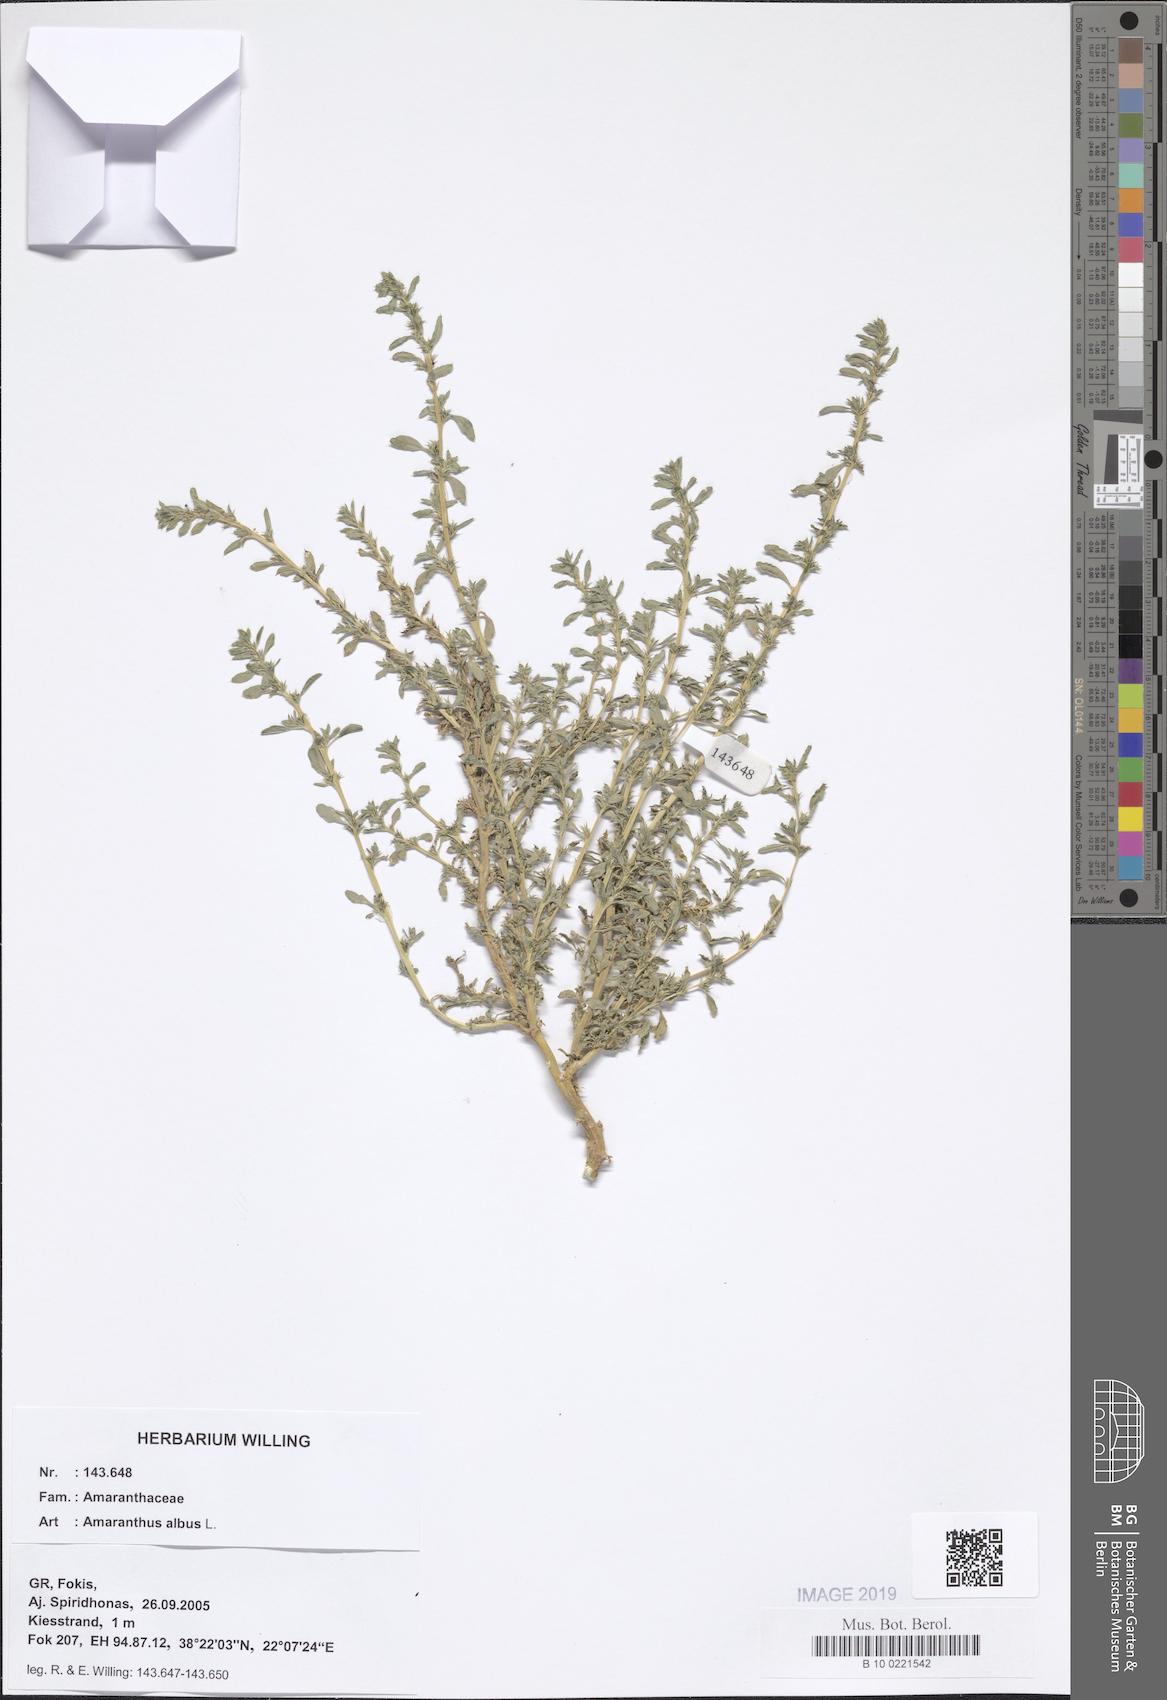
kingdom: Plantae
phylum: Tracheophyta
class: Magnoliopsida
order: Caryophyllales
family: Amaranthaceae
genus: Amaranthus
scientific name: Amaranthus albus
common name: White pigweed
